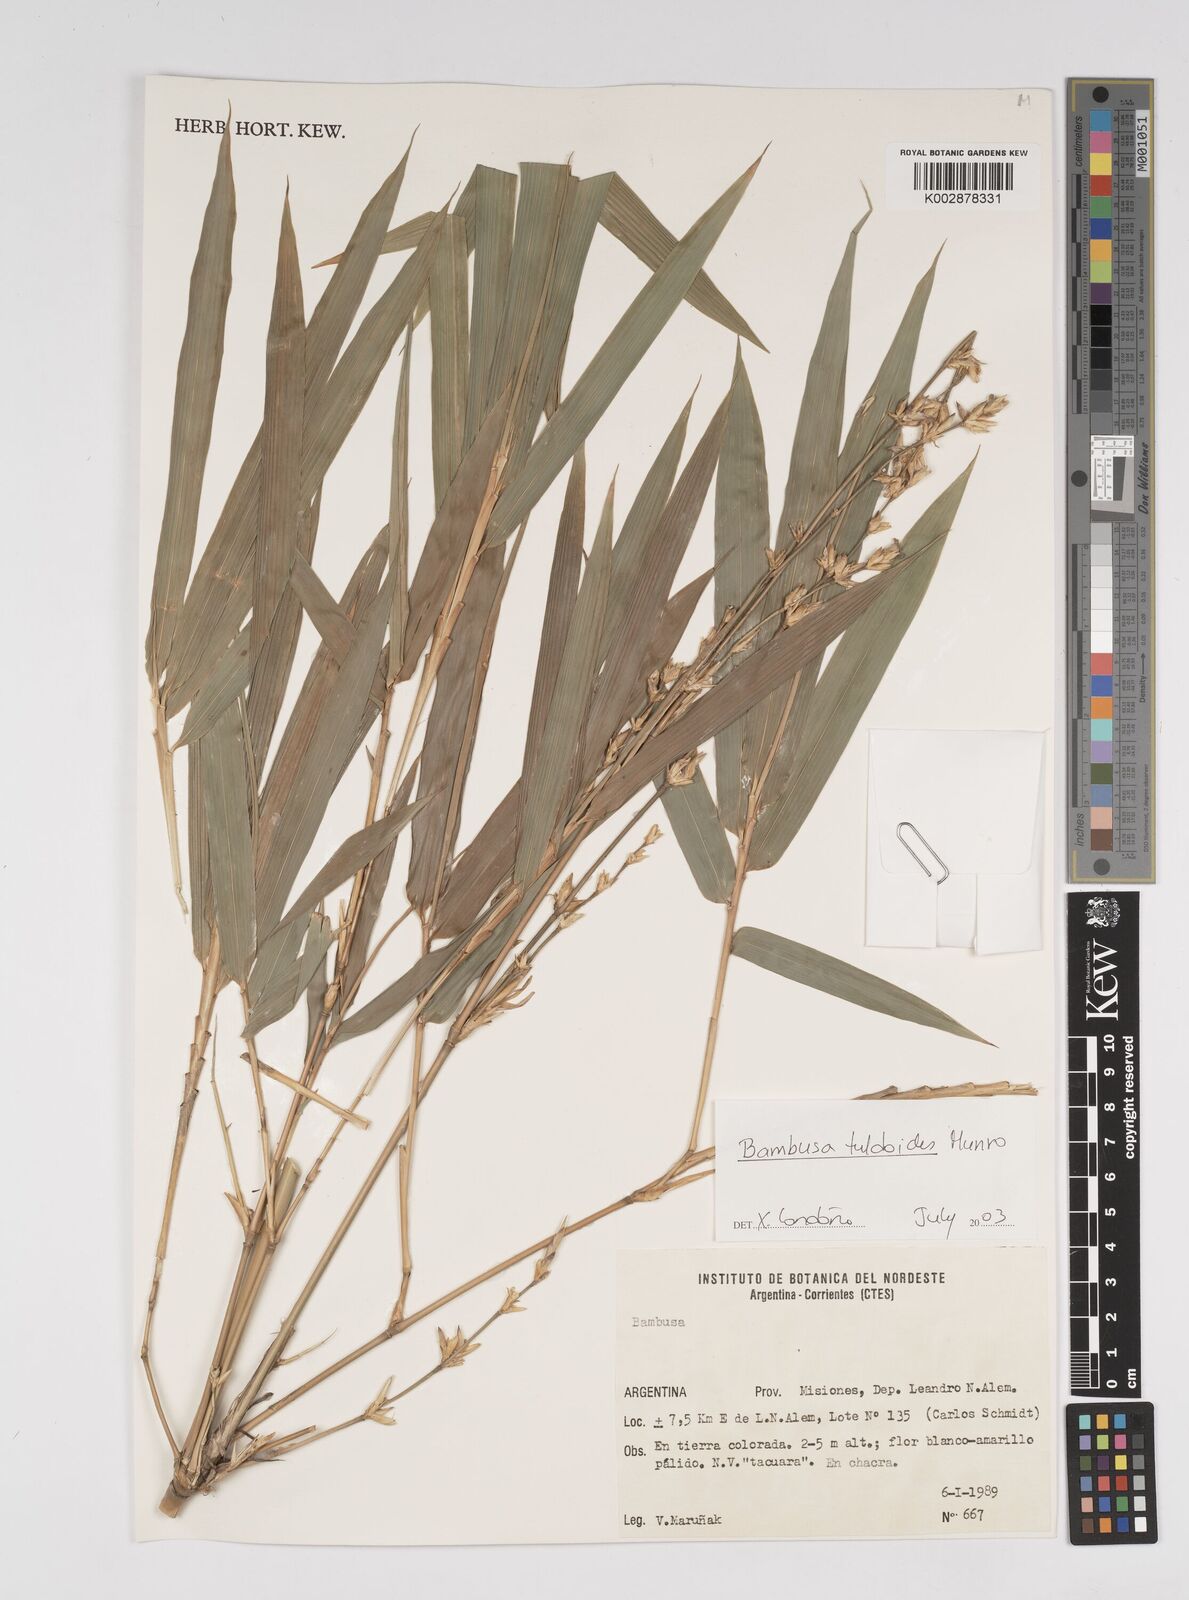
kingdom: Plantae
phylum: Tracheophyta
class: Liliopsida
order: Poales
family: Poaceae
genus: Bambusa
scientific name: Bambusa tuldoides
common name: Verdant bamboo
